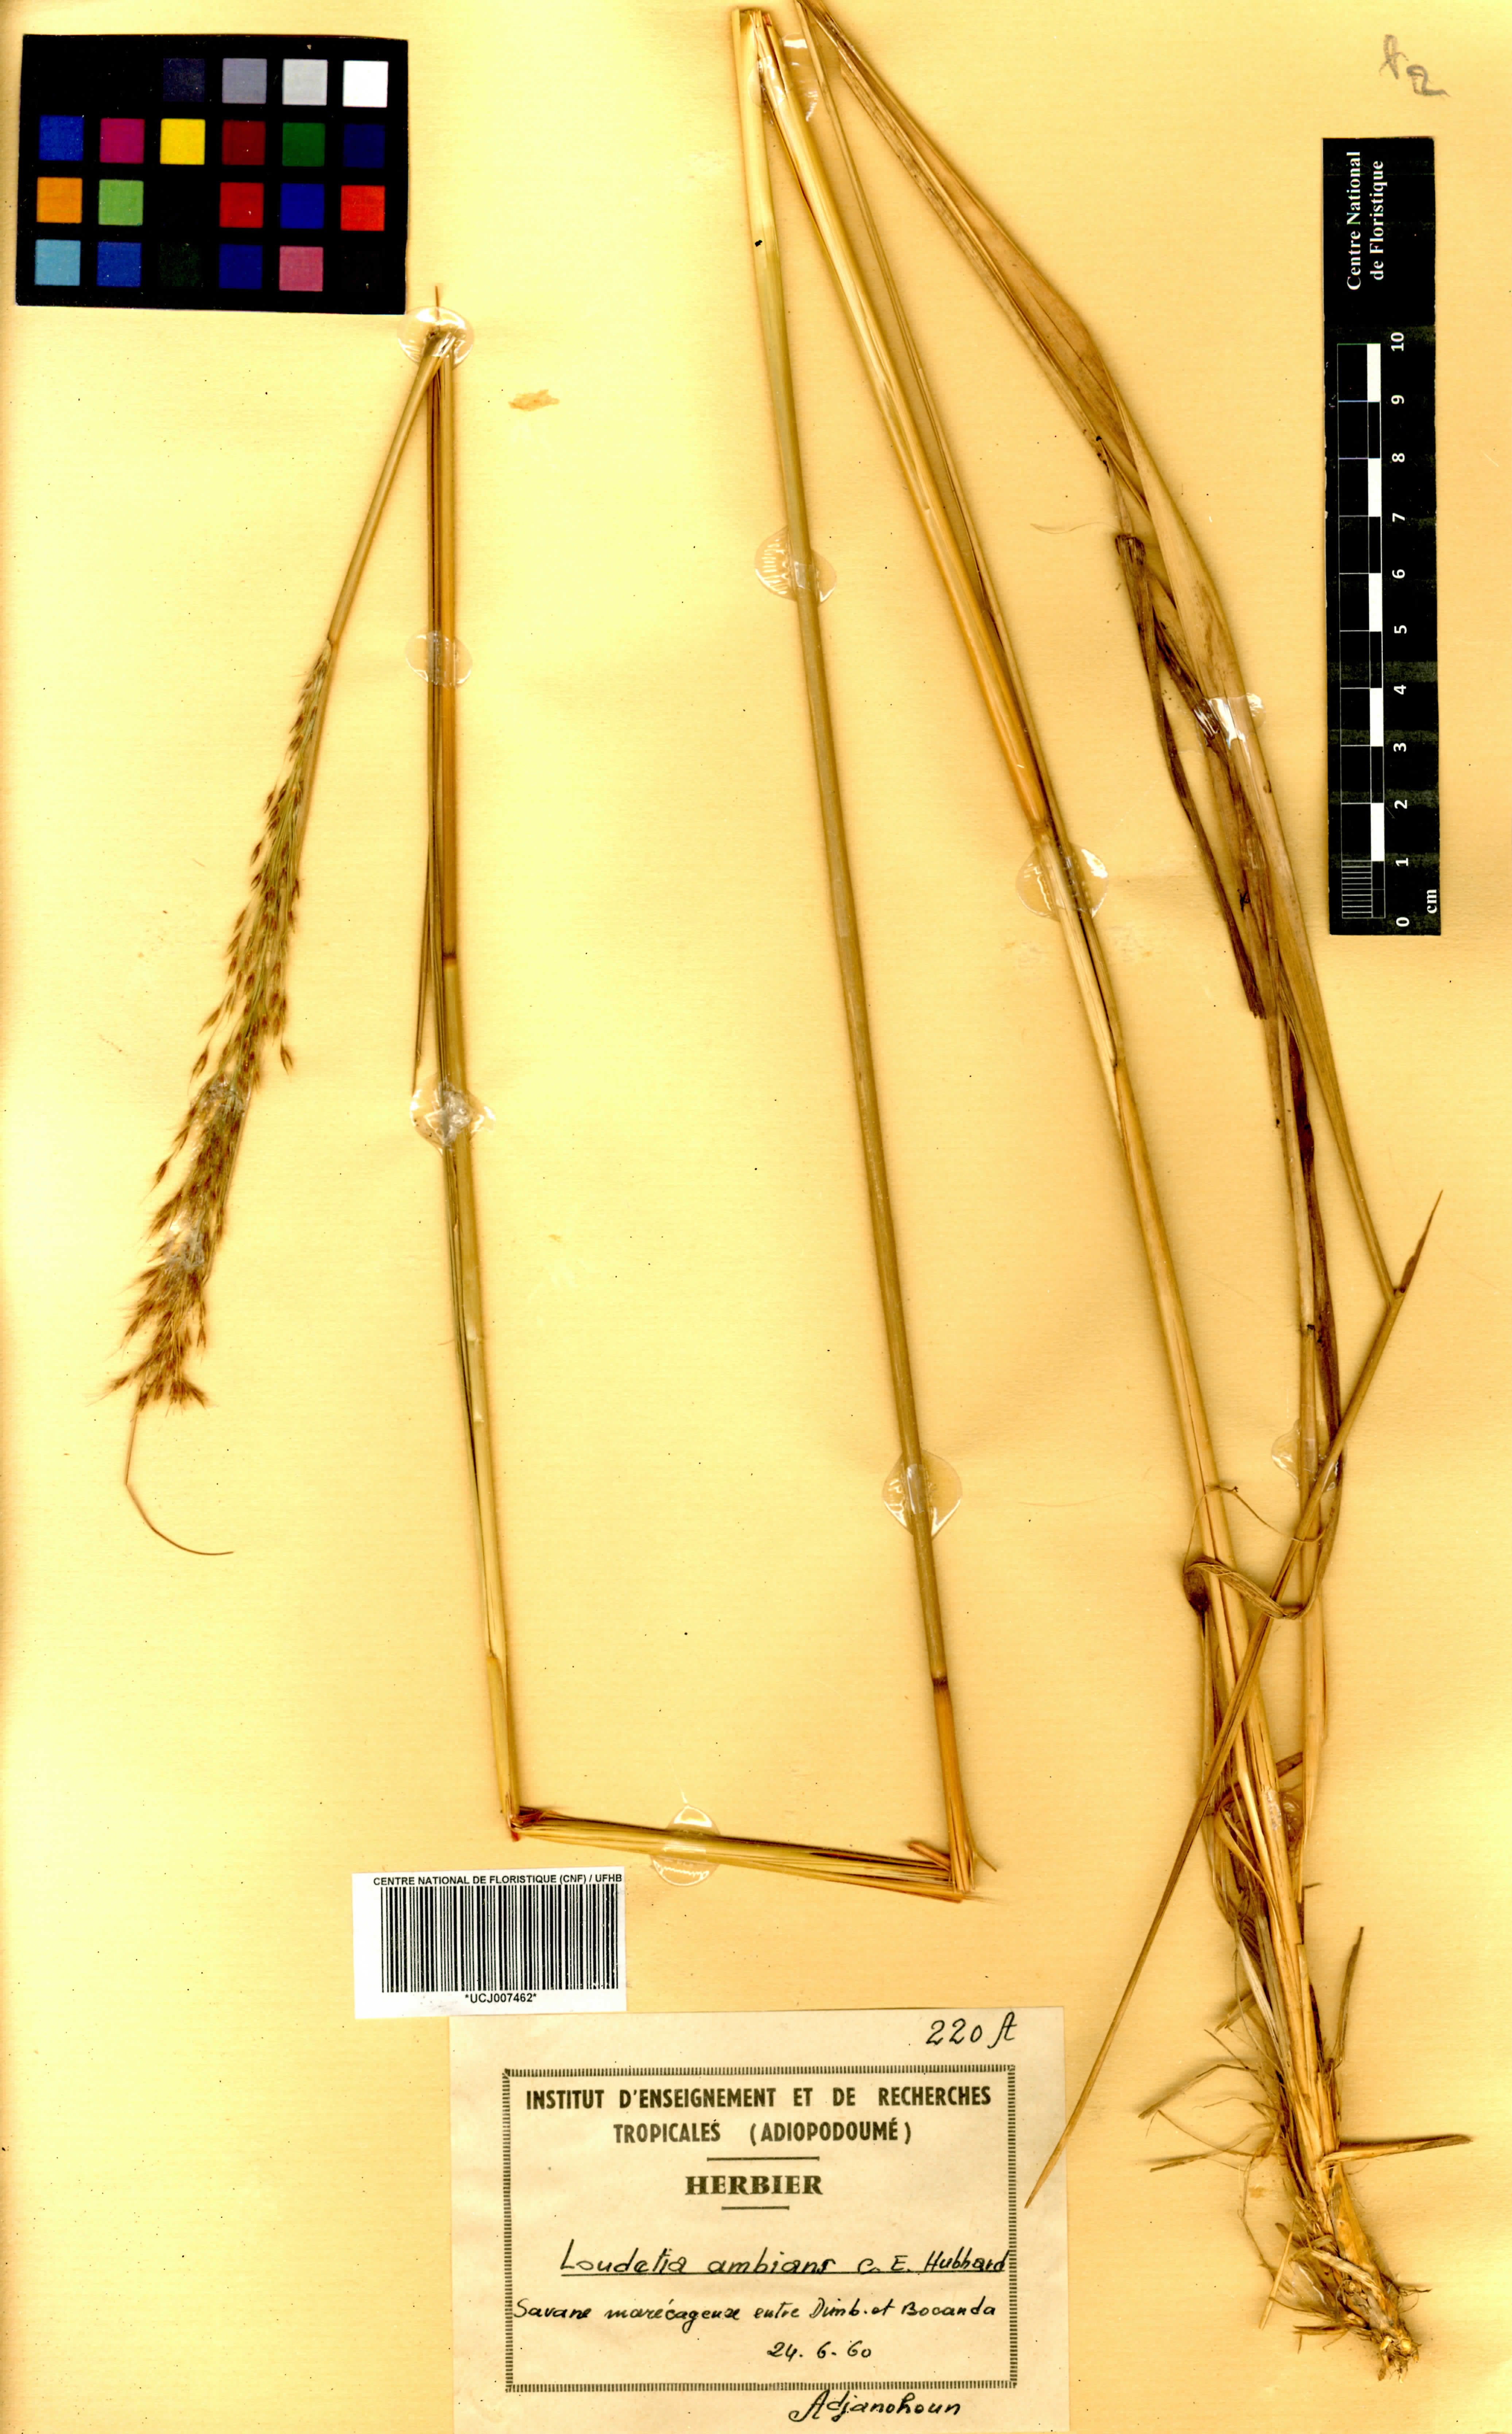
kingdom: Plantae
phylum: Tracheophyta
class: Liliopsida
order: Poales
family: Poaceae
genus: Loudetiopsis
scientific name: Loudetiopsis ambiens
